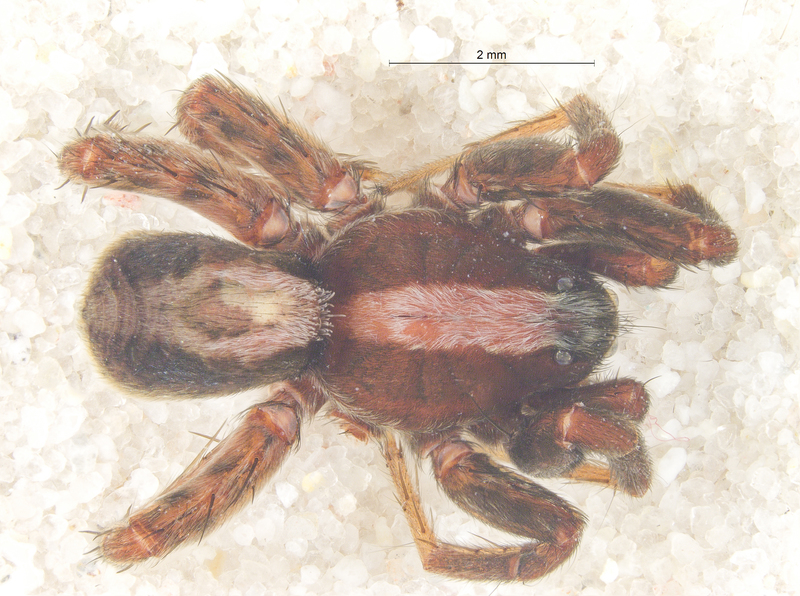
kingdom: Animalia
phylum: Arthropoda
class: Arachnida
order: Araneae
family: Lycosidae
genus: Alopecosa
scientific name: Alopecosa pulverulenta
